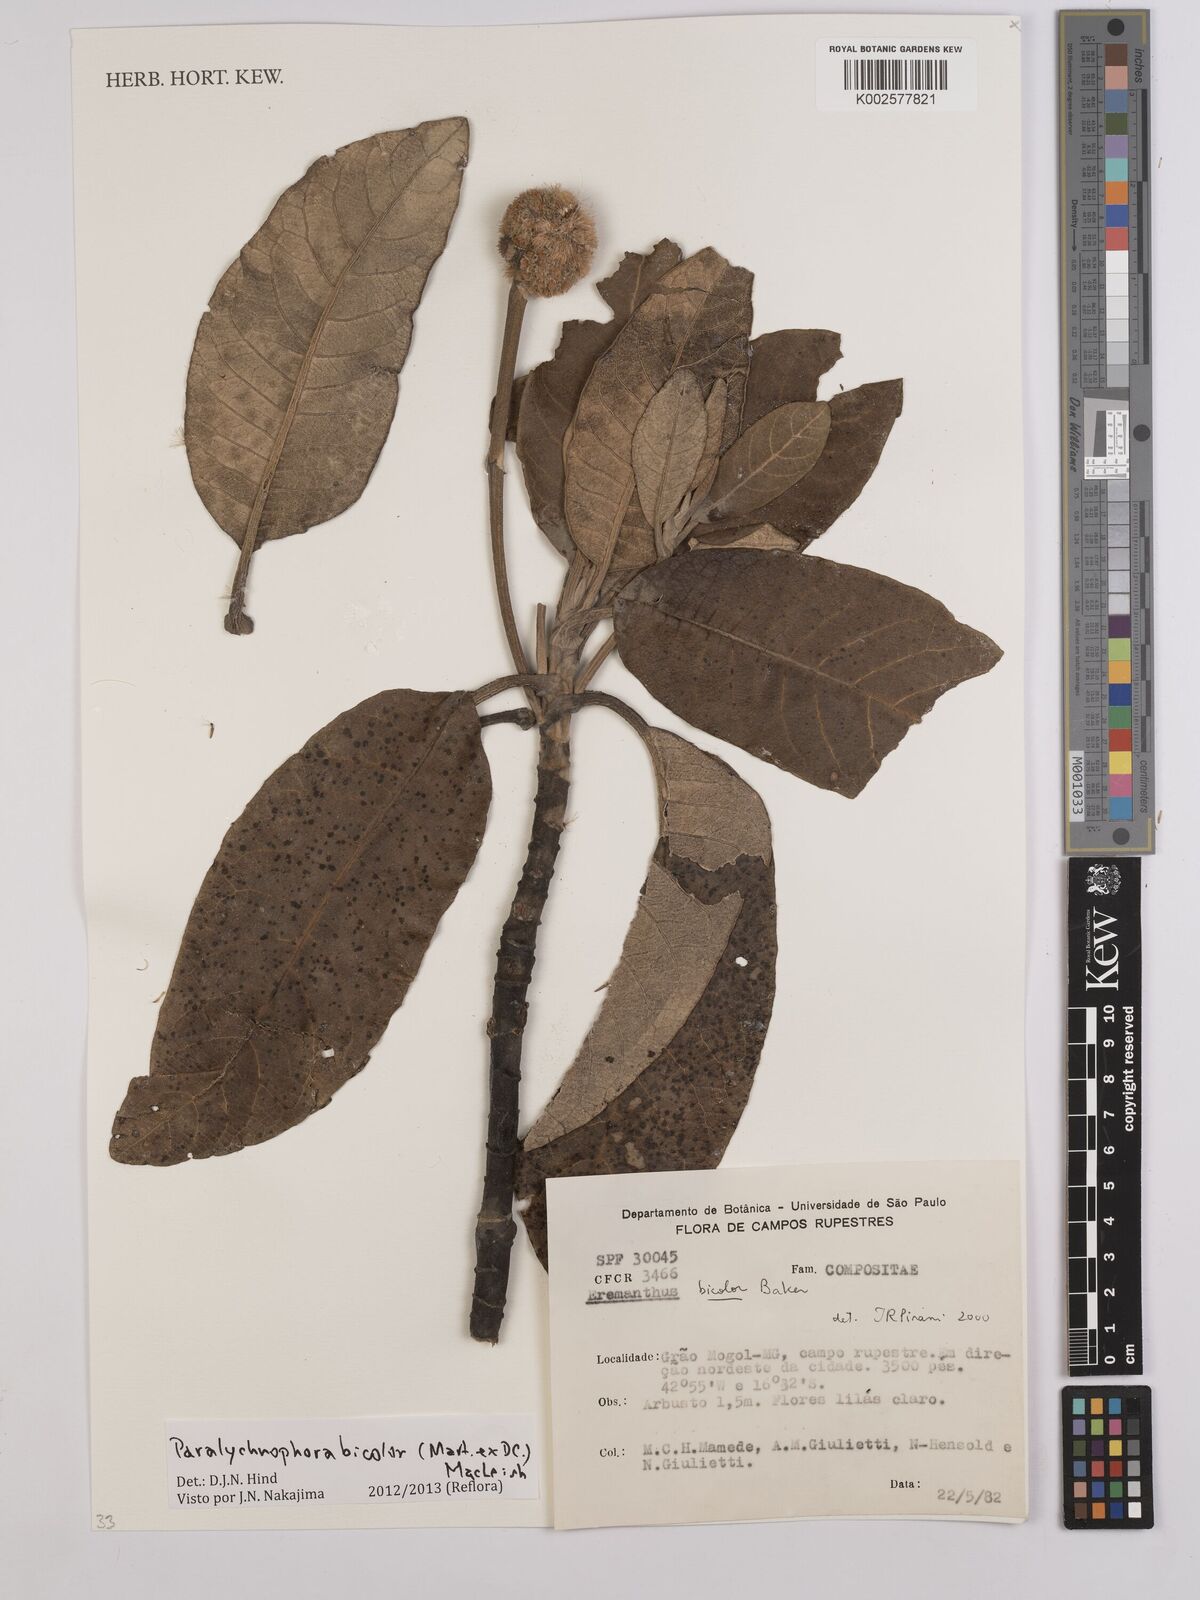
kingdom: Plantae
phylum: Tracheophyta
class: Magnoliopsida
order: Asterales
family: Asteraceae
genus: Paralychnophora
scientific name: Paralychnophora bicolor
